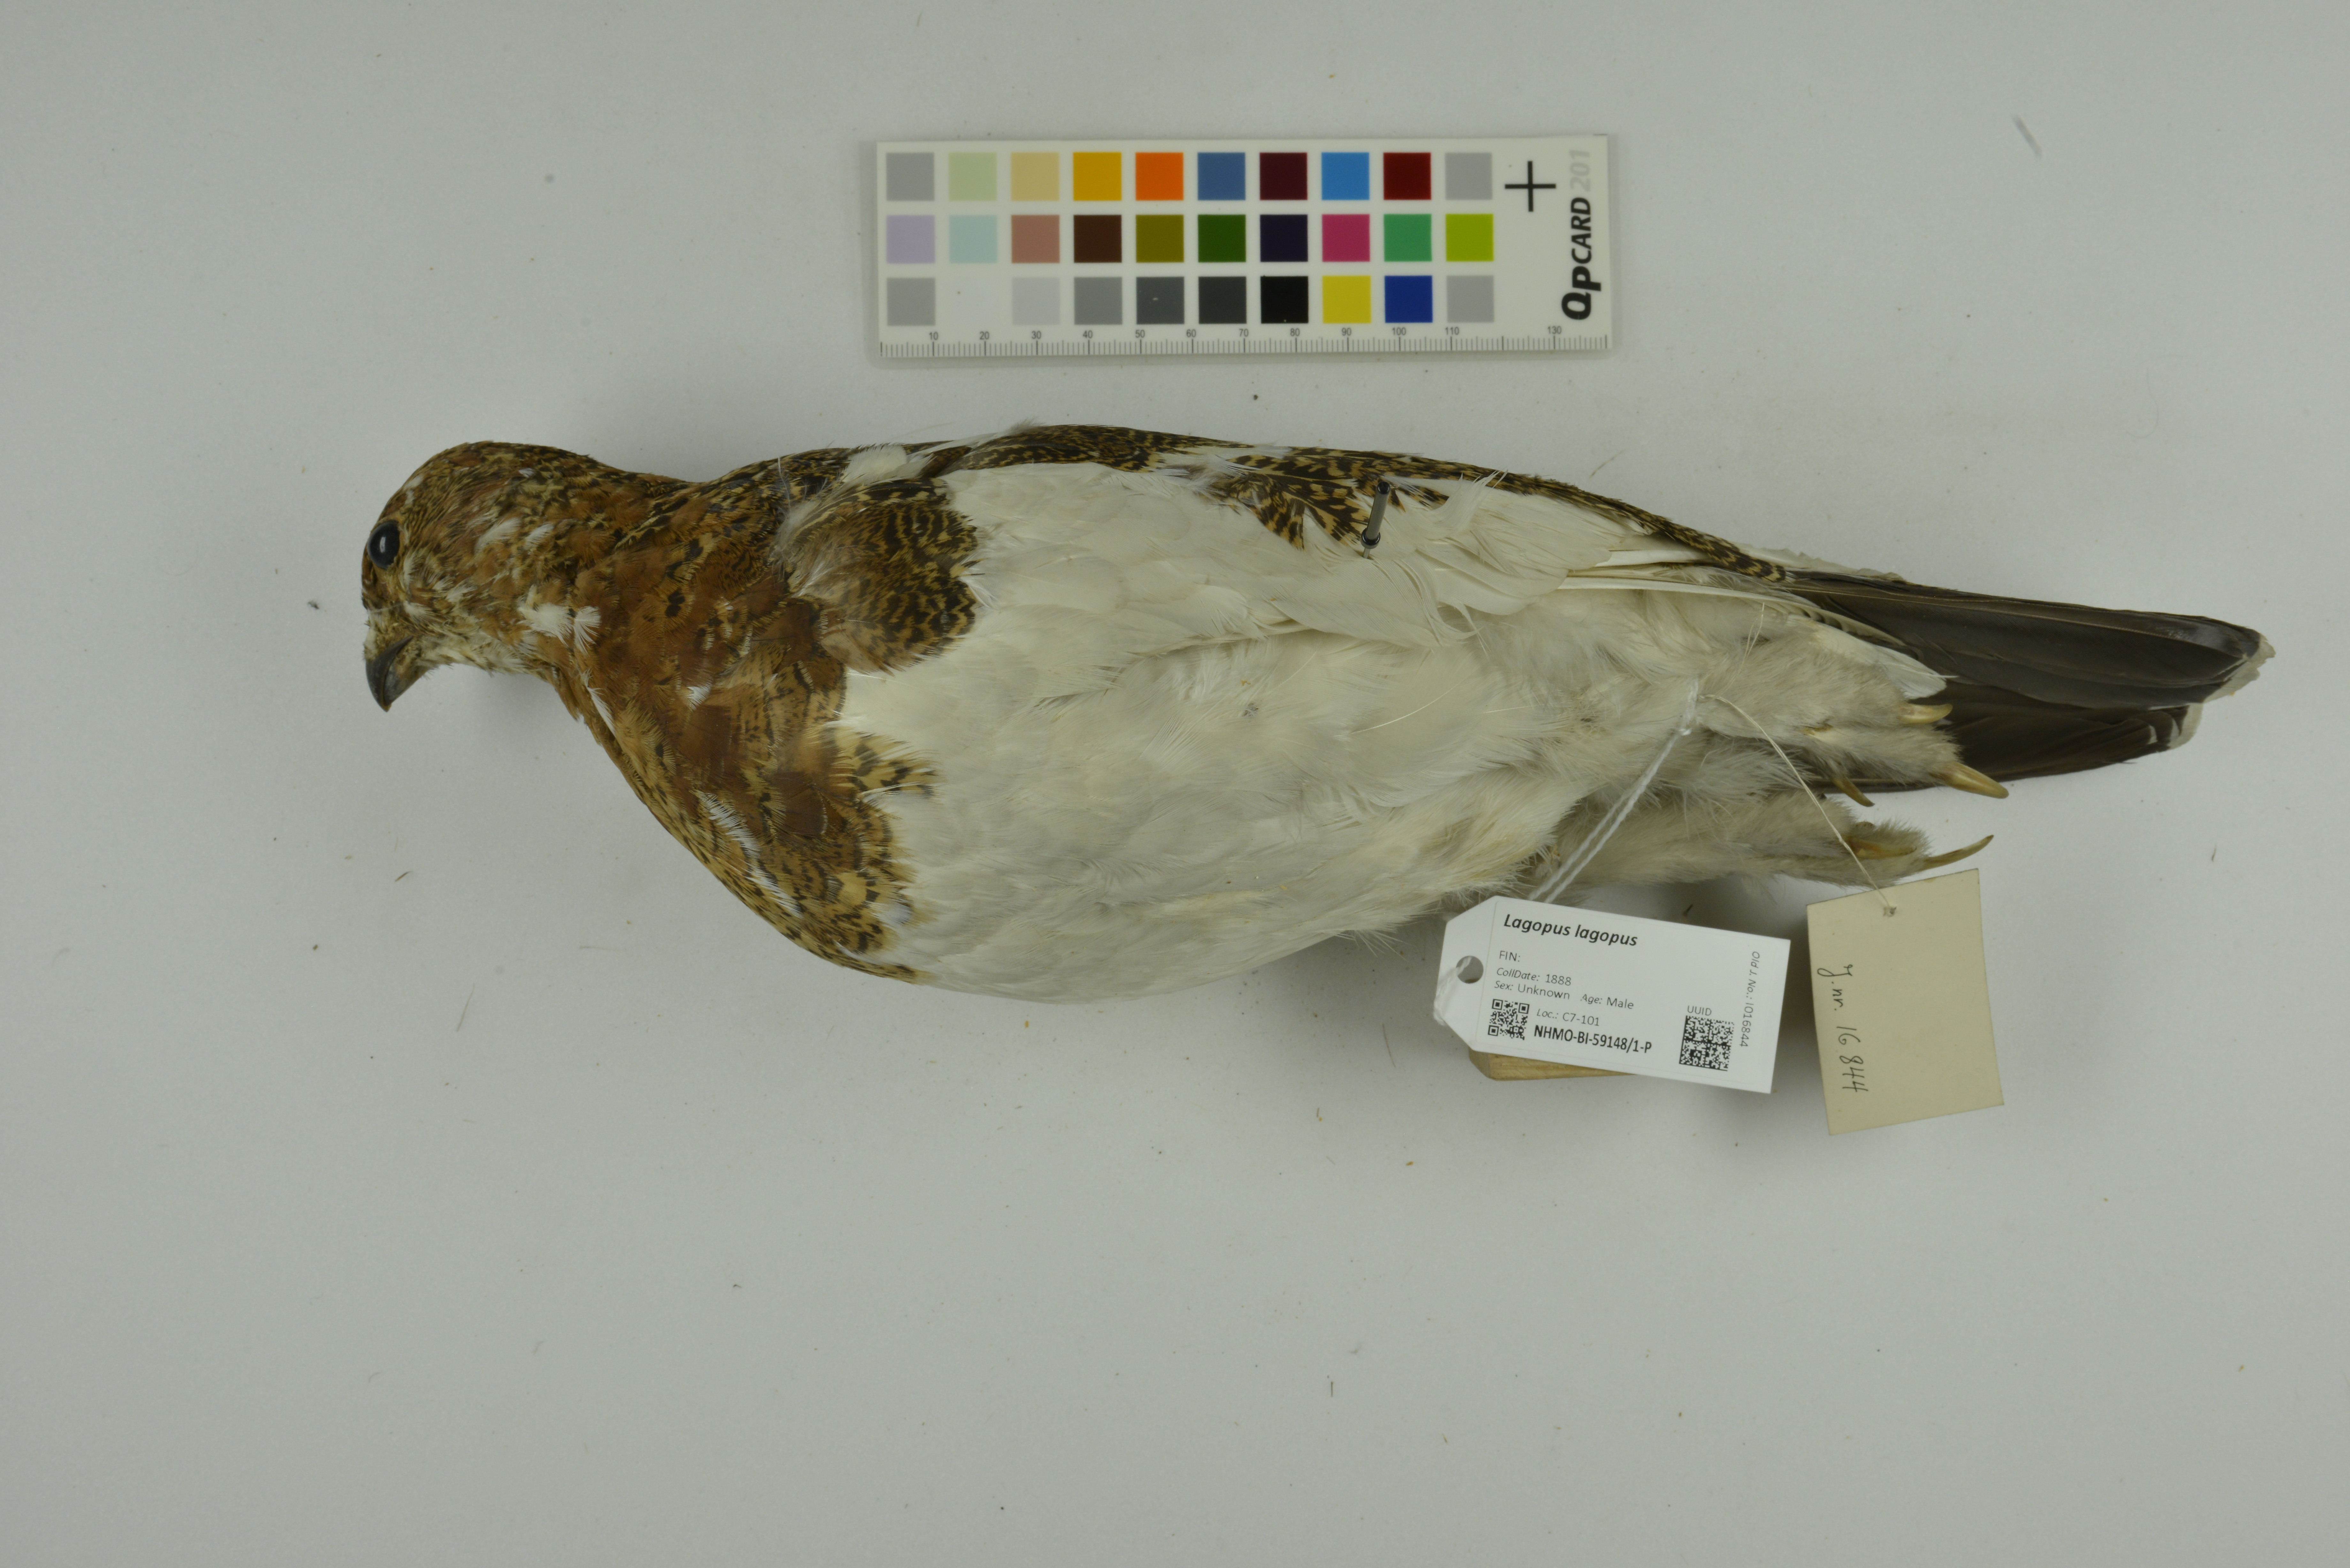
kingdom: Animalia
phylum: Chordata
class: Aves
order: Galliformes
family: Phasianidae
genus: Lagopus
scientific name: Lagopus lagopus
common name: Willow ptarmigan
